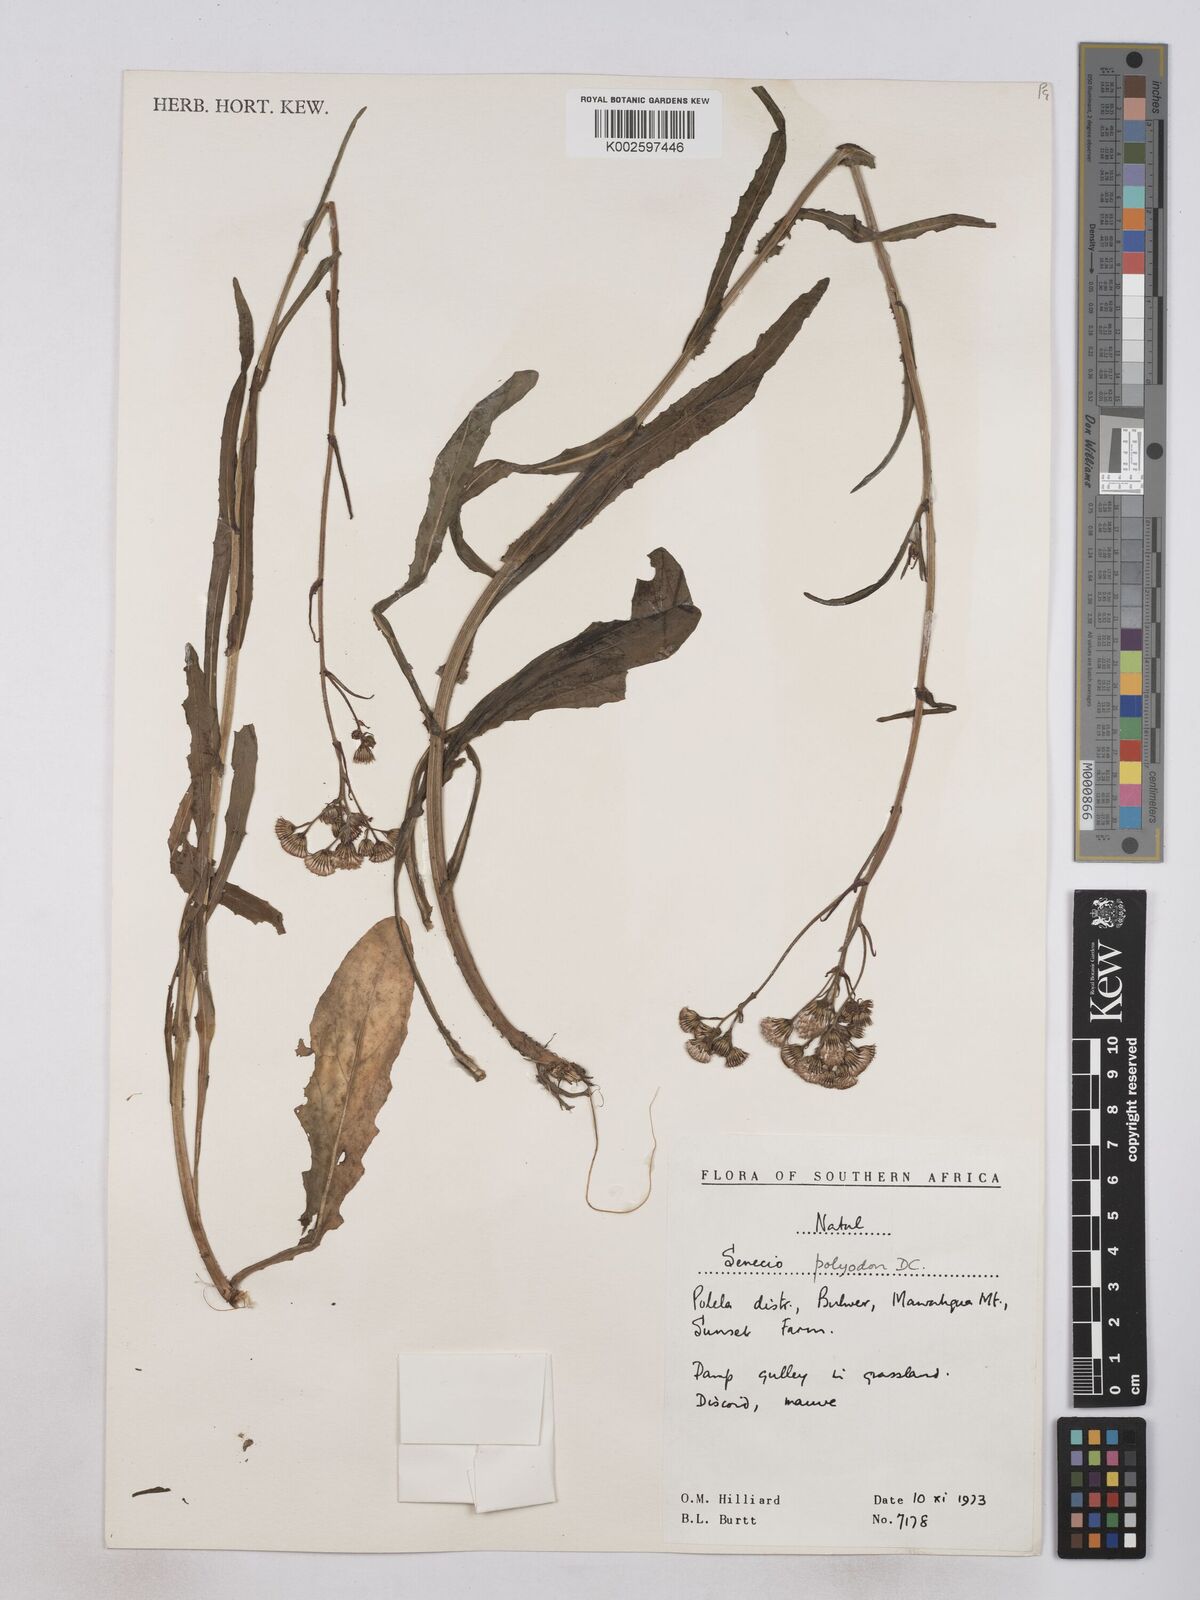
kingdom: Plantae
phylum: Tracheophyta
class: Magnoliopsida
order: Asterales
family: Asteraceae
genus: Senecio
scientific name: Senecio polyodon
